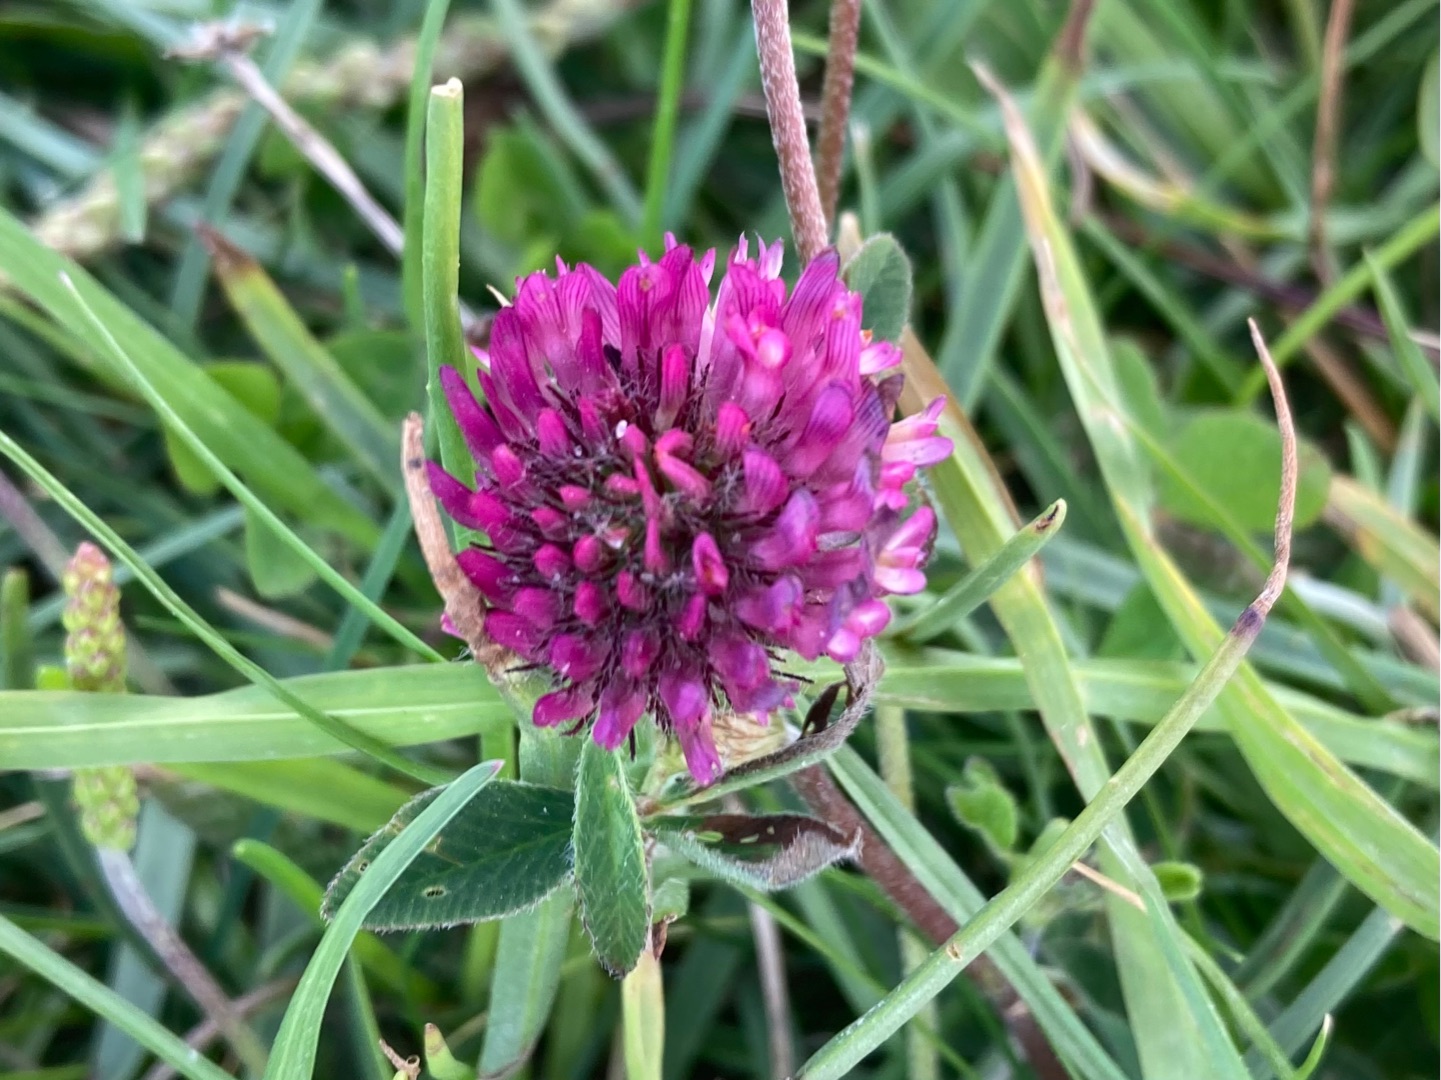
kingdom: Plantae
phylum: Tracheophyta
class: Magnoliopsida
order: Fabales
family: Fabaceae
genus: Trifolium
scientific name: Trifolium pratense
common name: Rød-kløver
